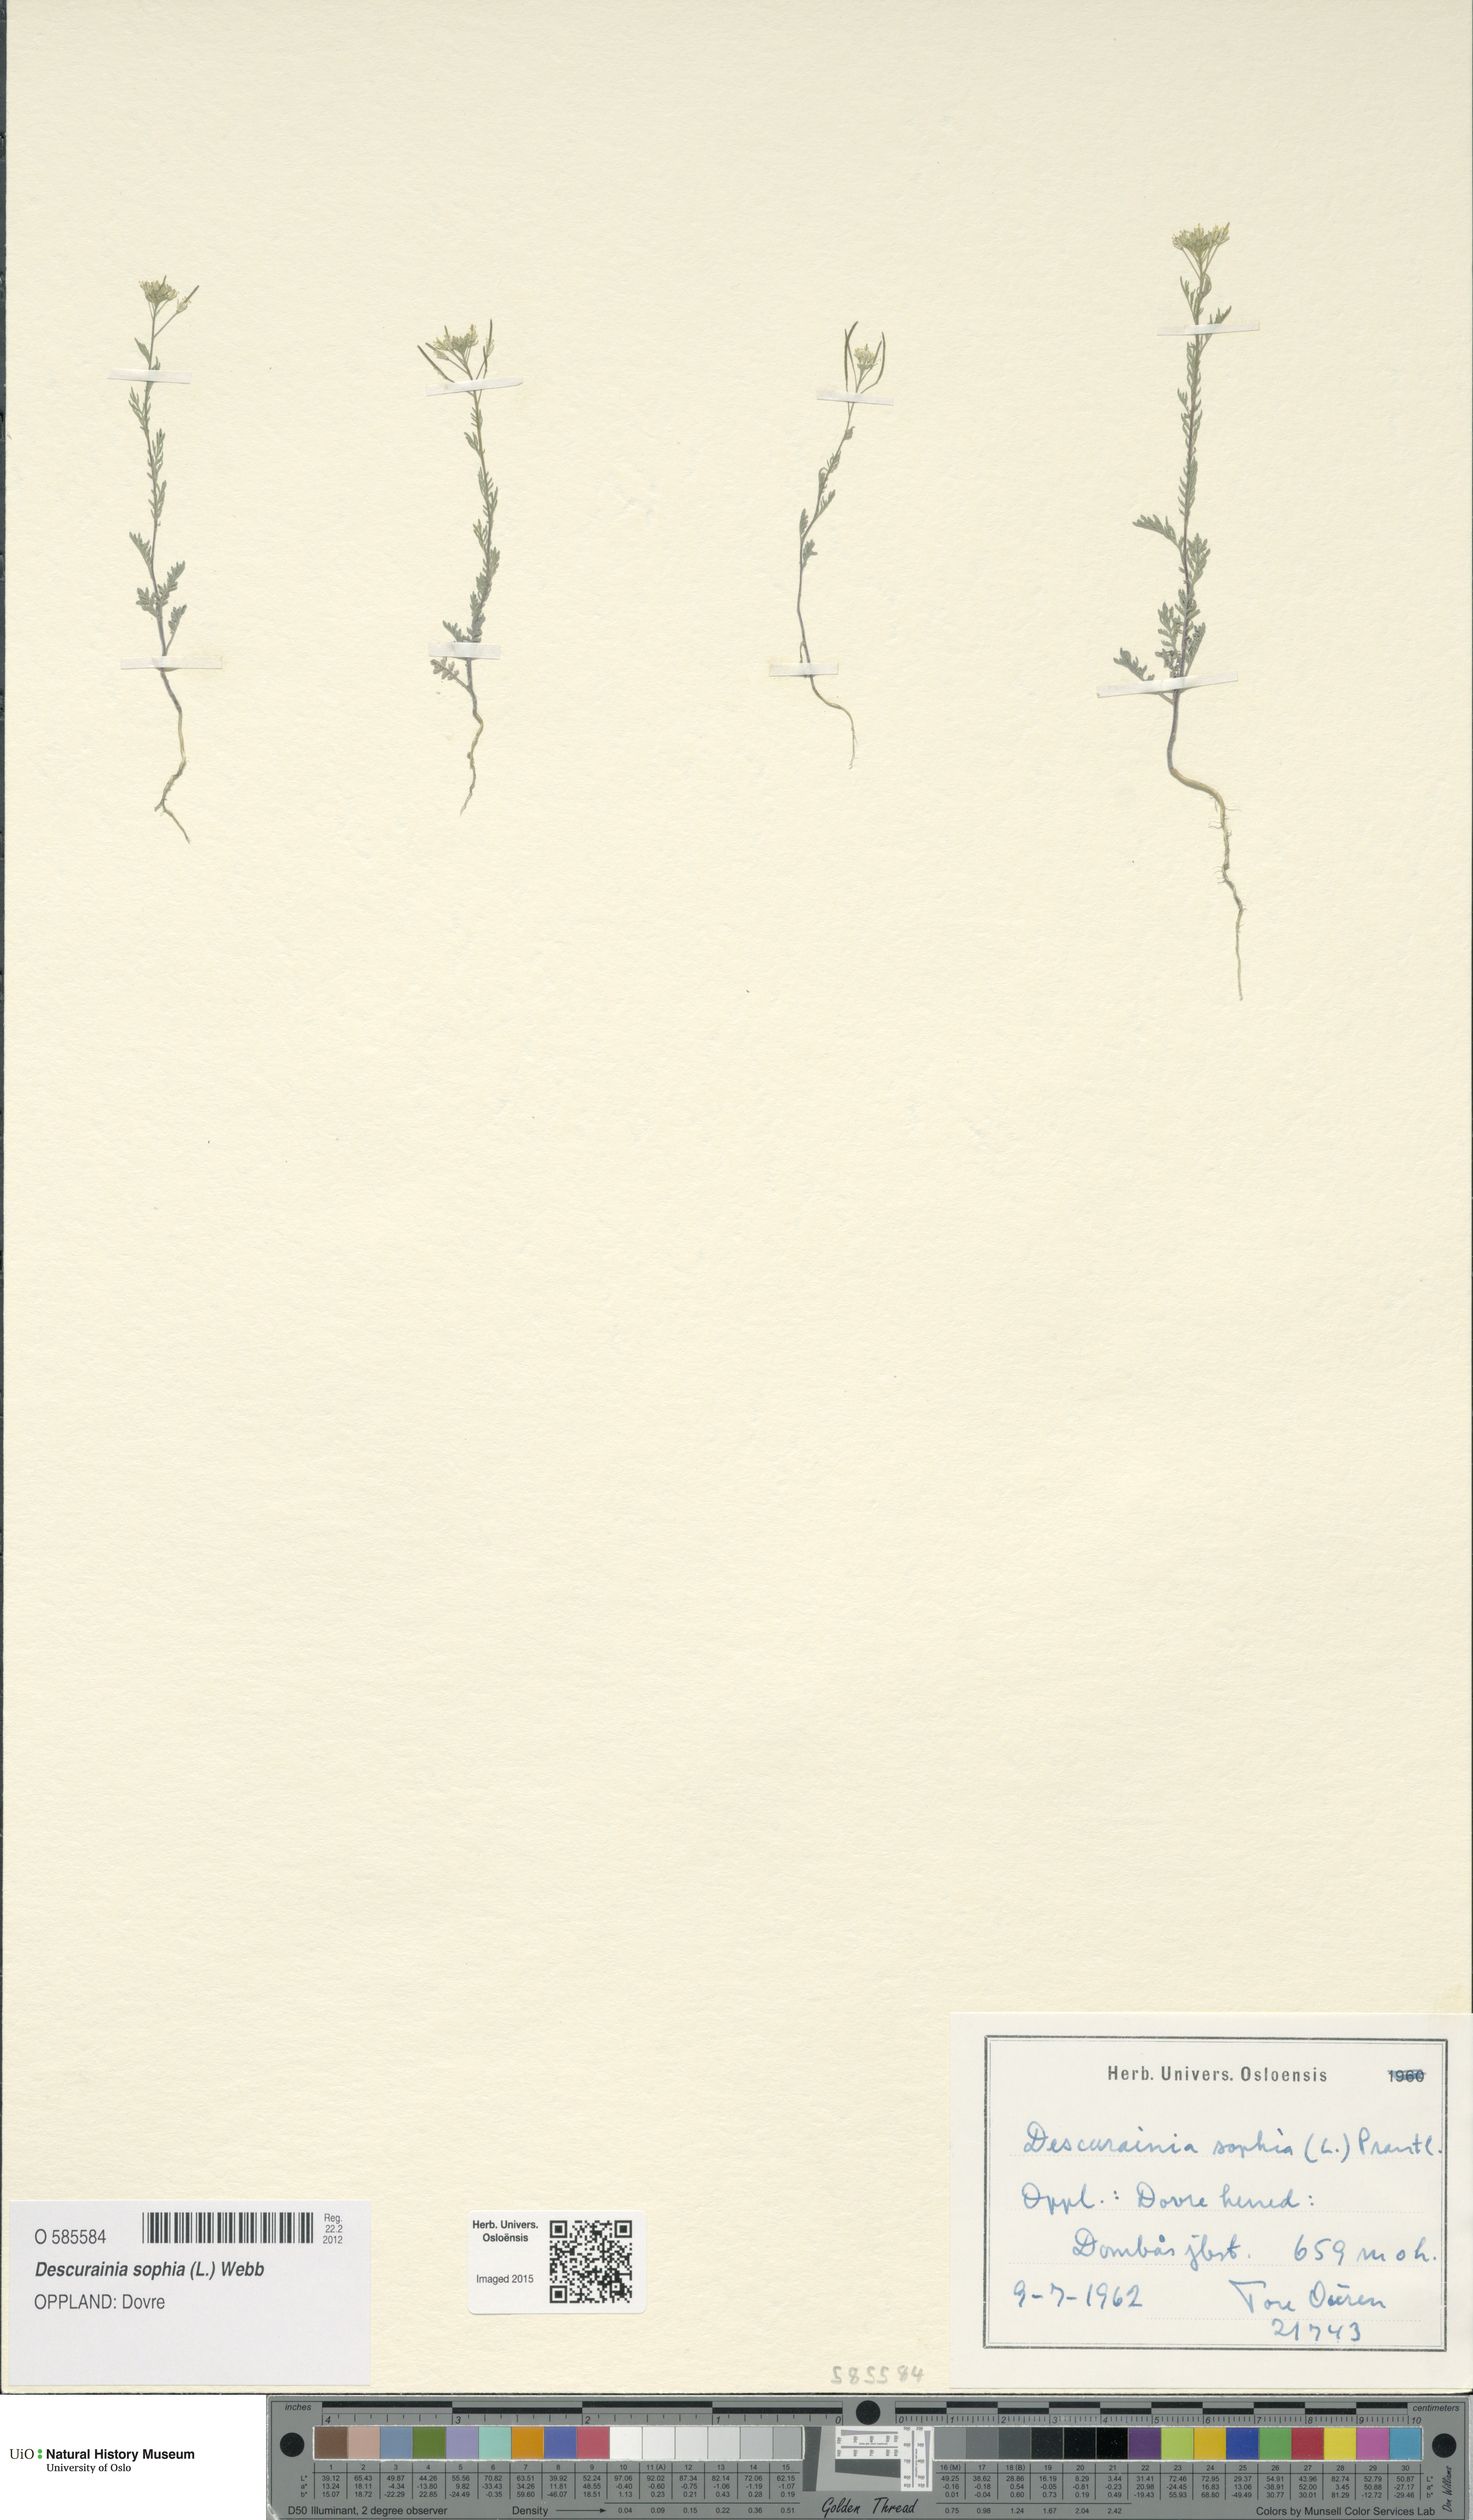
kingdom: Plantae
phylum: Tracheophyta
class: Magnoliopsida
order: Brassicales
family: Brassicaceae
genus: Descurainia
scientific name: Descurainia sophia
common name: Flixweed
